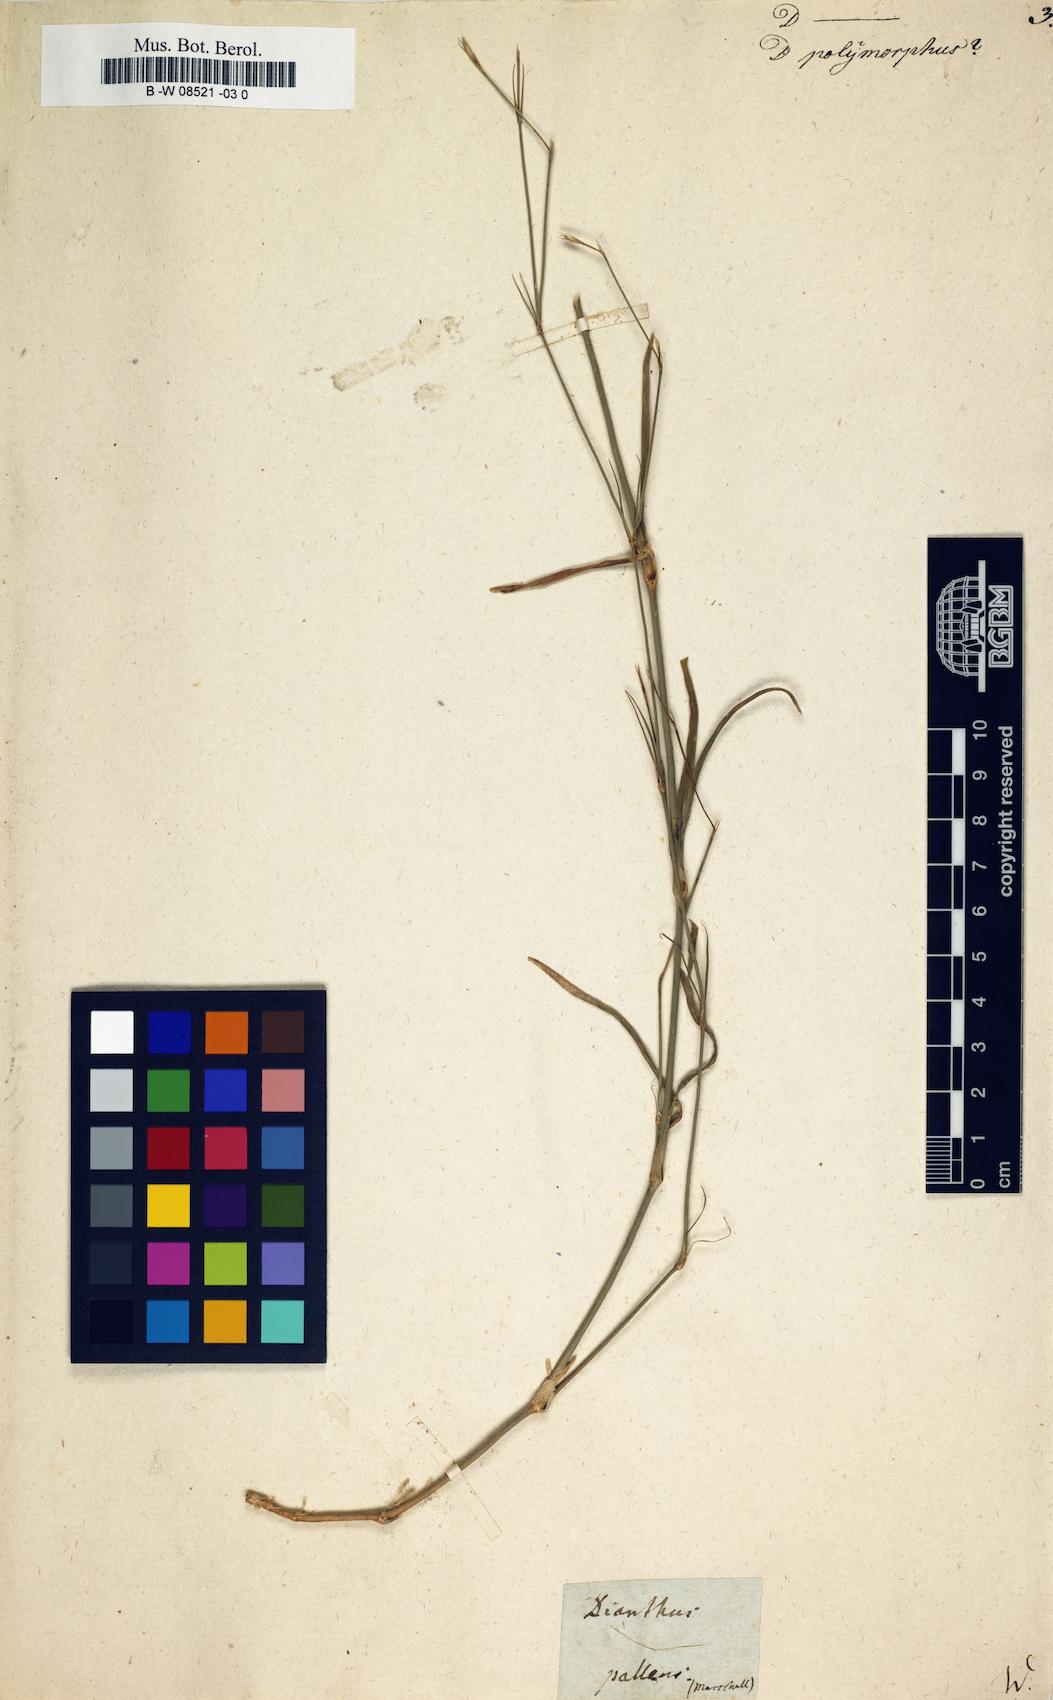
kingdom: Plantae
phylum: Tracheophyta
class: Magnoliopsida
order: Caryophyllales
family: Caryophyllaceae
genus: Dianthus
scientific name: Dianthus polymorphus
